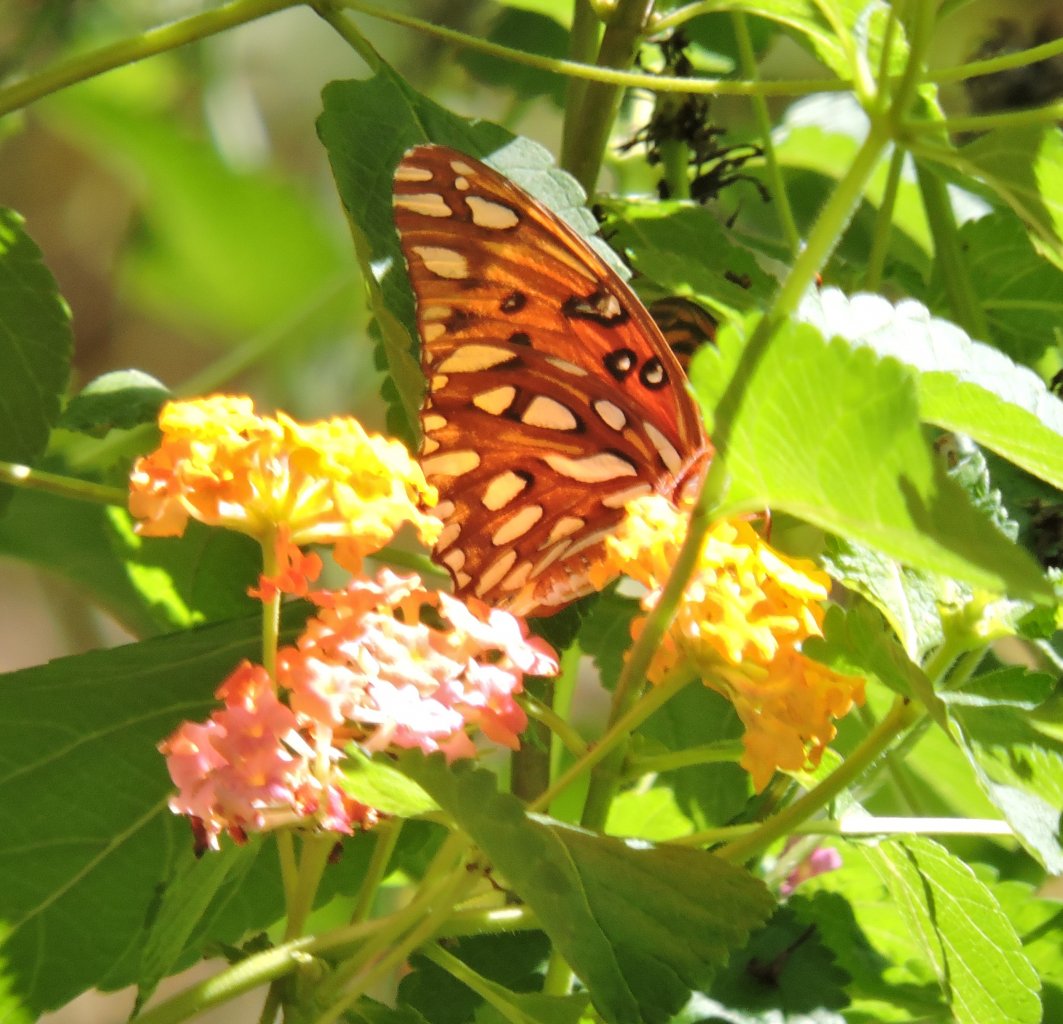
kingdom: Animalia
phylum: Arthropoda
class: Insecta
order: Lepidoptera
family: Nymphalidae
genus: Dione
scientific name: Dione vanillae
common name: Gulf Fritillary
